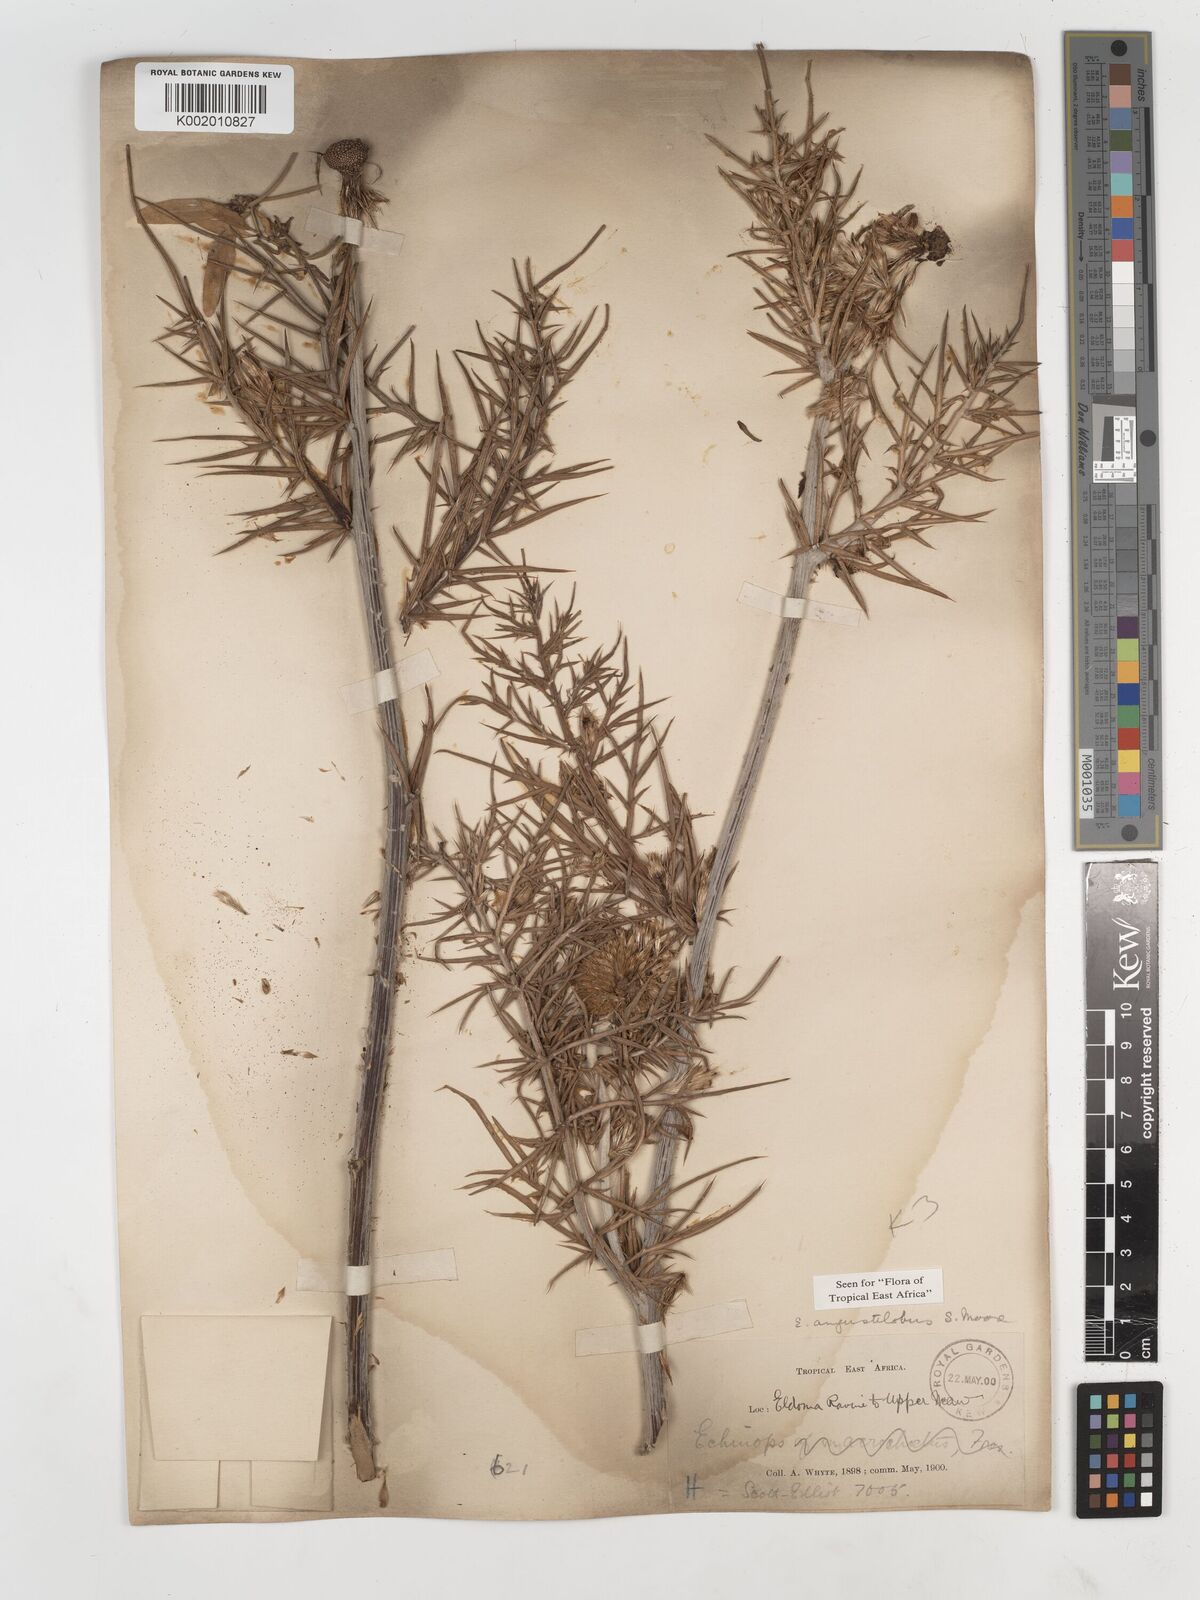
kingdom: Plantae
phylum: Tracheophyta
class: Magnoliopsida
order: Asterales
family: Asteraceae
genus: Echinops
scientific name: Echinops angustilobus
